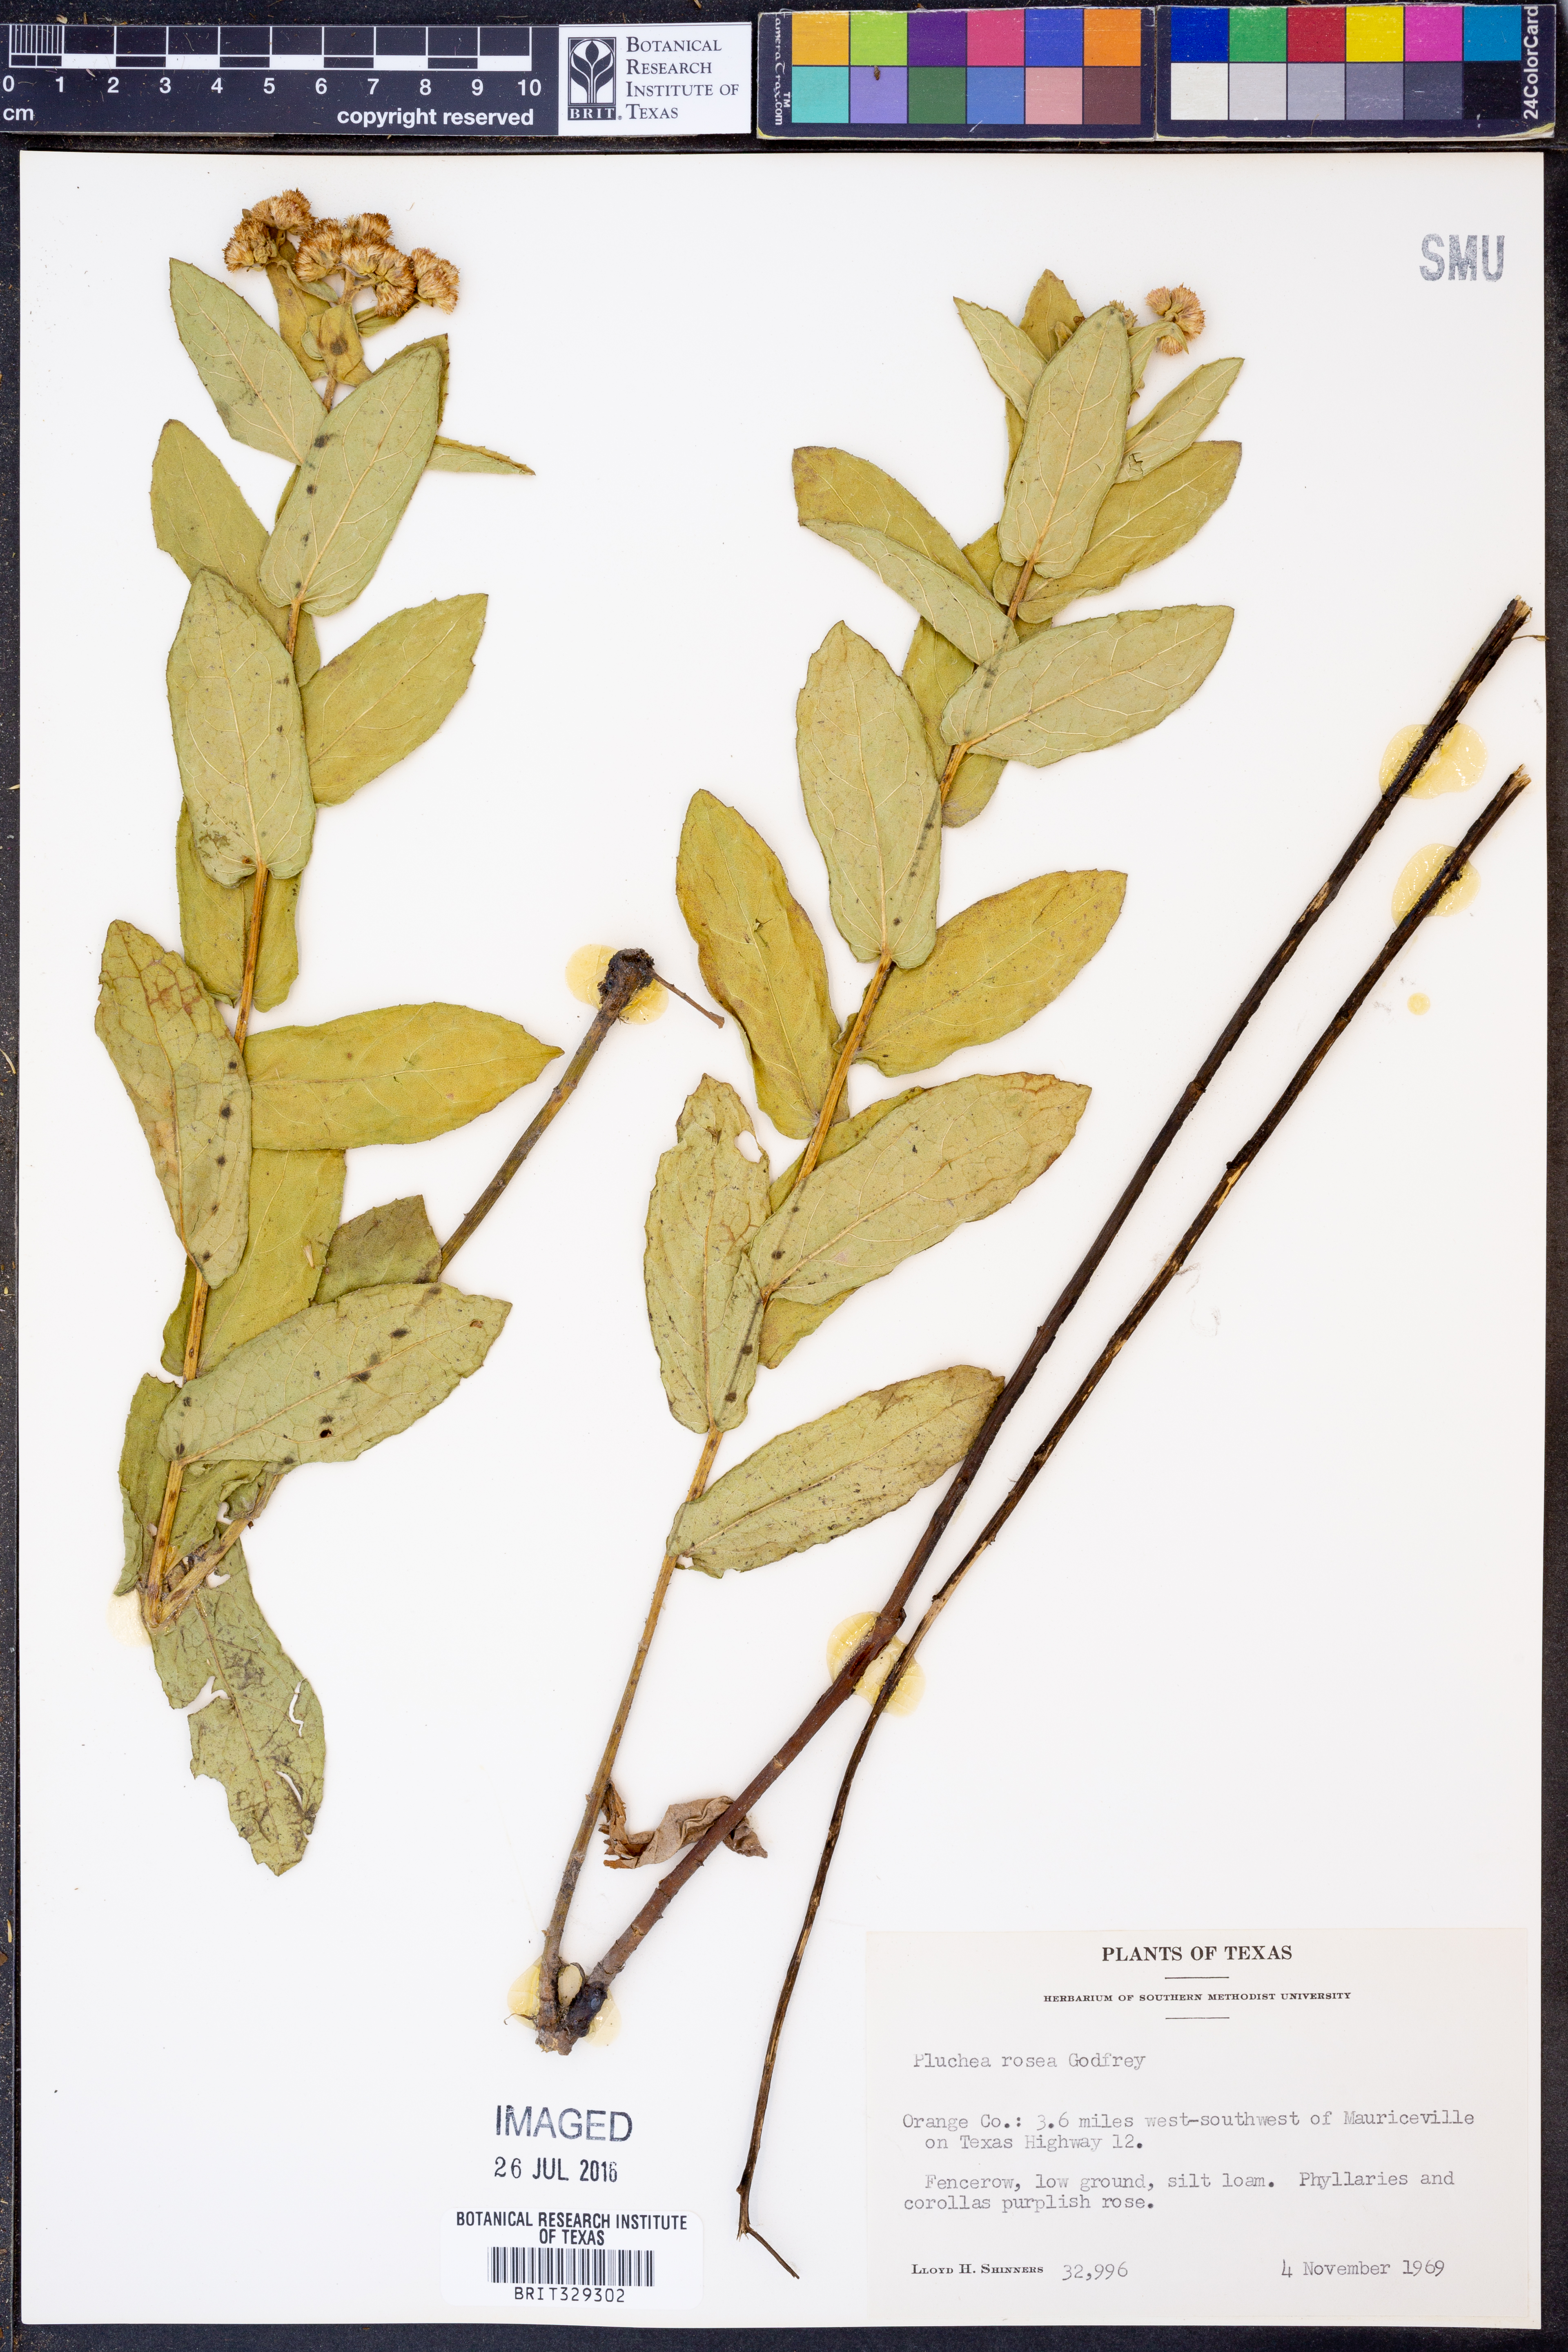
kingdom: Plantae
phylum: Tracheophyta
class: Magnoliopsida
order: Asterales
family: Asteraceae
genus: Pluchea
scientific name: Pluchea baccharis
